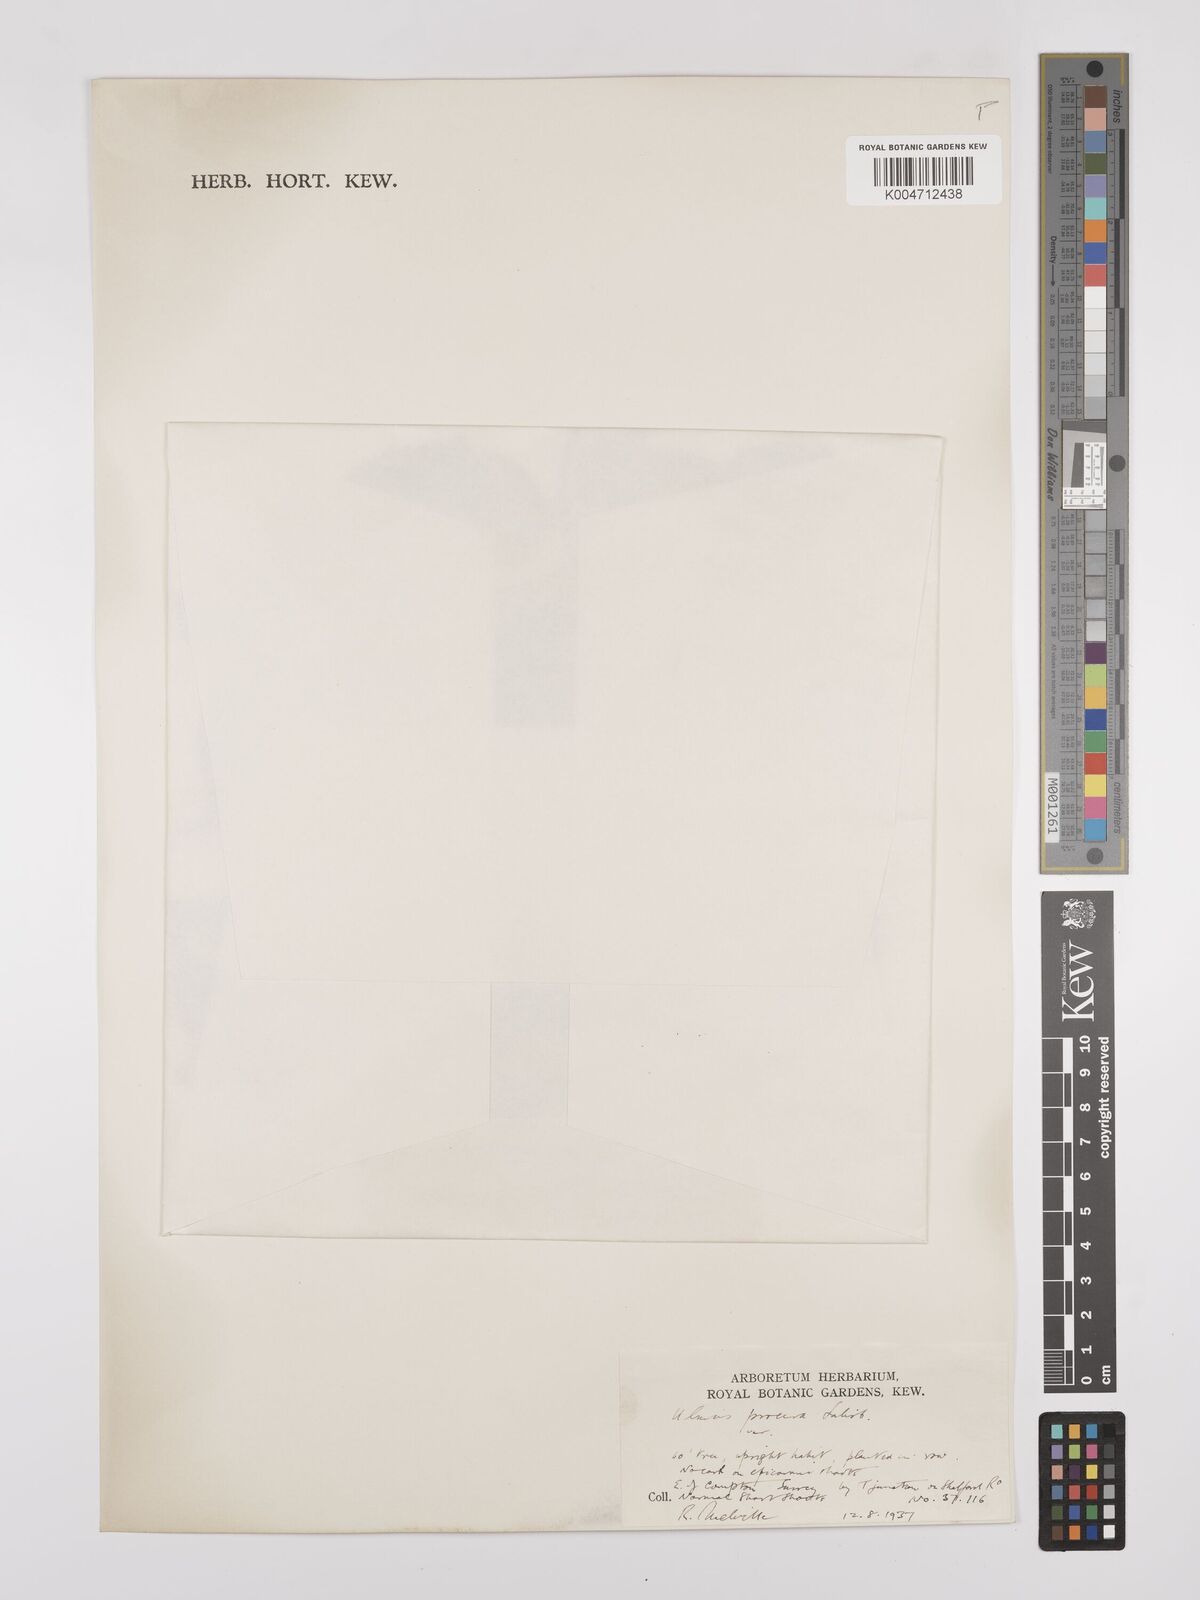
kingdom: Plantae
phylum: Tracheophyta
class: Magnoliopsida
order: Rosales
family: Ulmaceae
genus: Ulmus
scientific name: Ulmus minor
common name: Small-leaved elm
